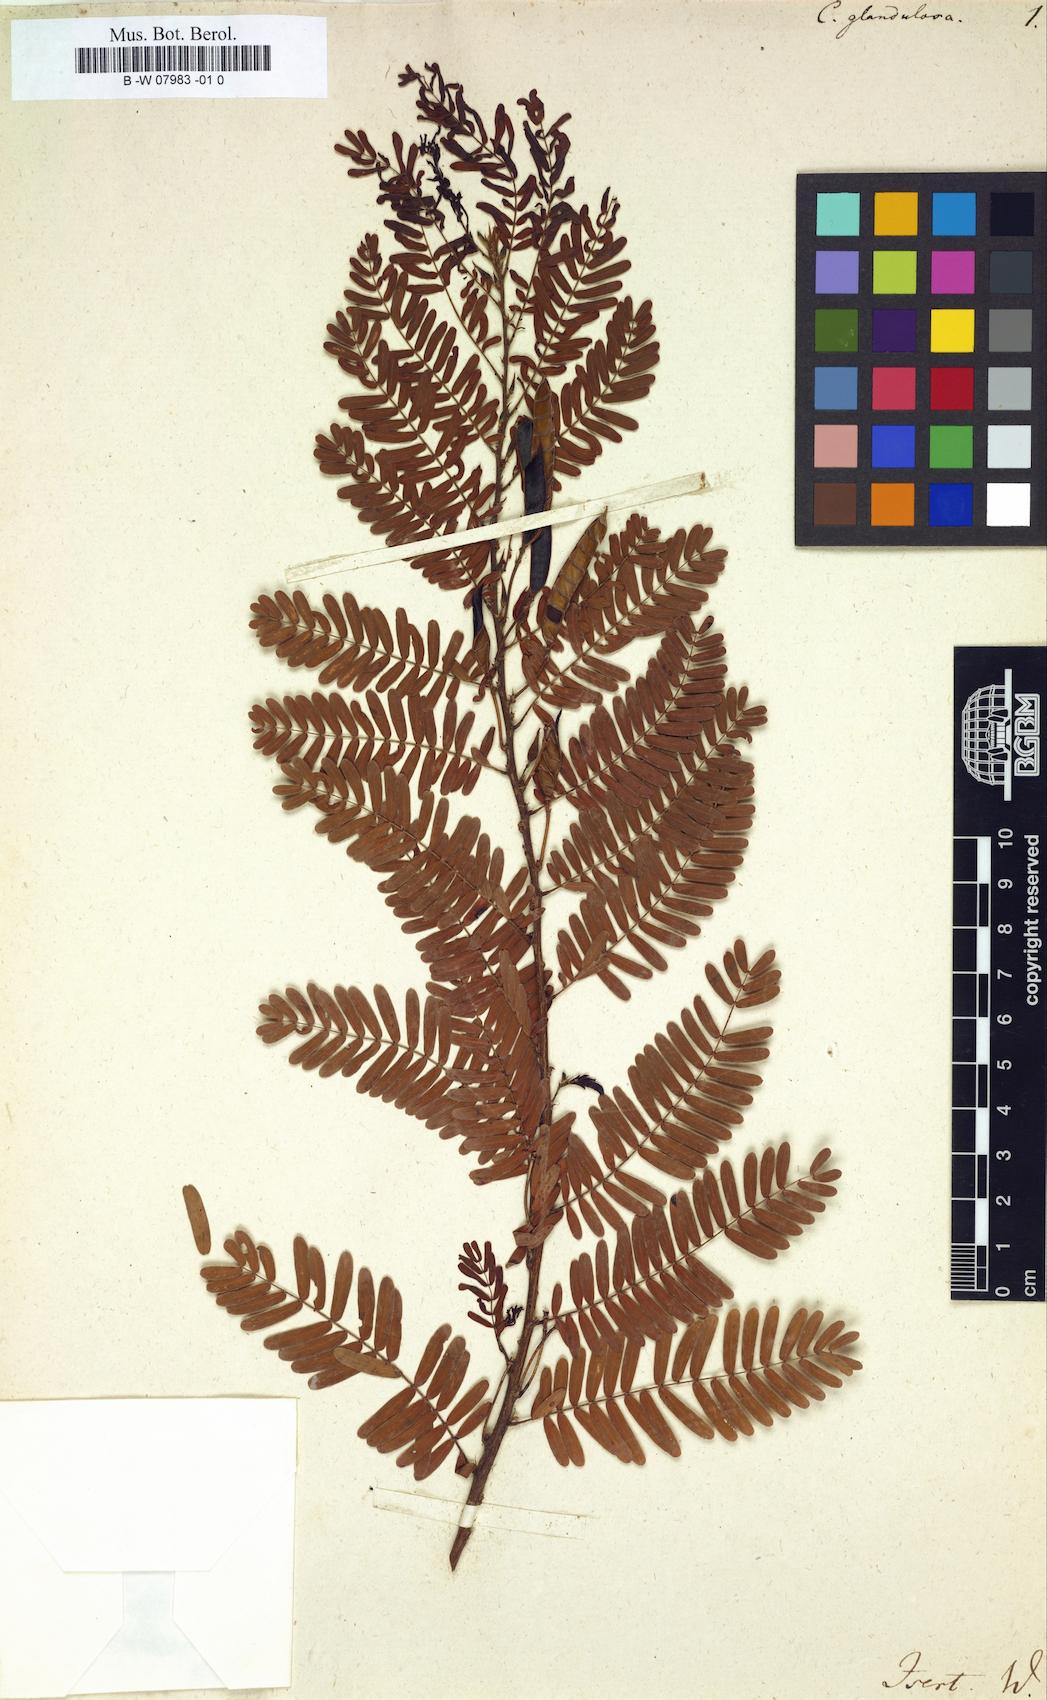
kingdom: Plantae
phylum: Tracheophyta
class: Magnoliopsida
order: Fabales
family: Fabaceae
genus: Chamaecrista
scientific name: Chamaecrista glandulosa
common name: Wild peas
